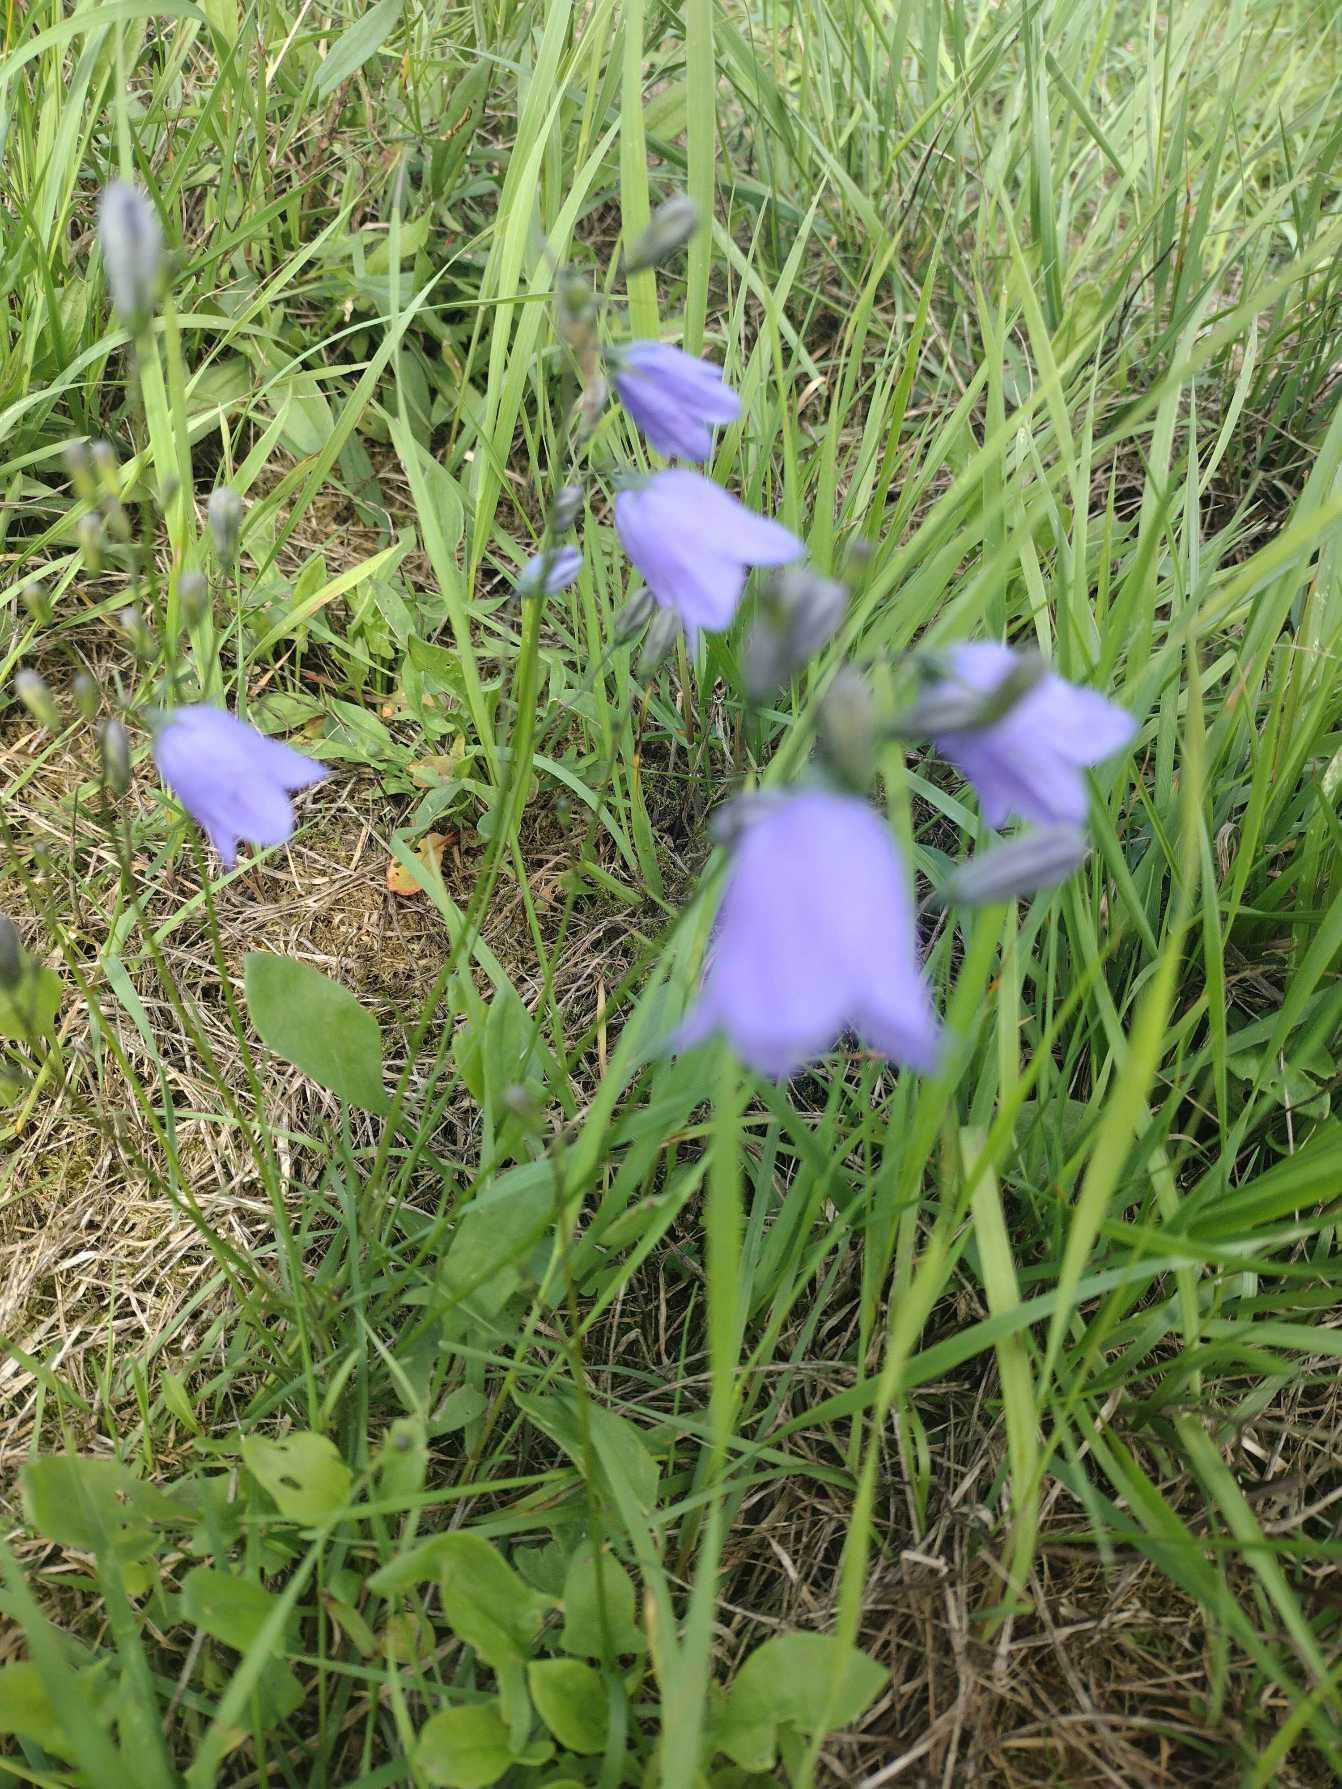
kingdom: Plantae
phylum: Tracheophyta
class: Magnoliopsida
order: Asterales
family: Campanulaceae
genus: Campanula
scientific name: Campanula rotundifolia
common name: Liden klokke
